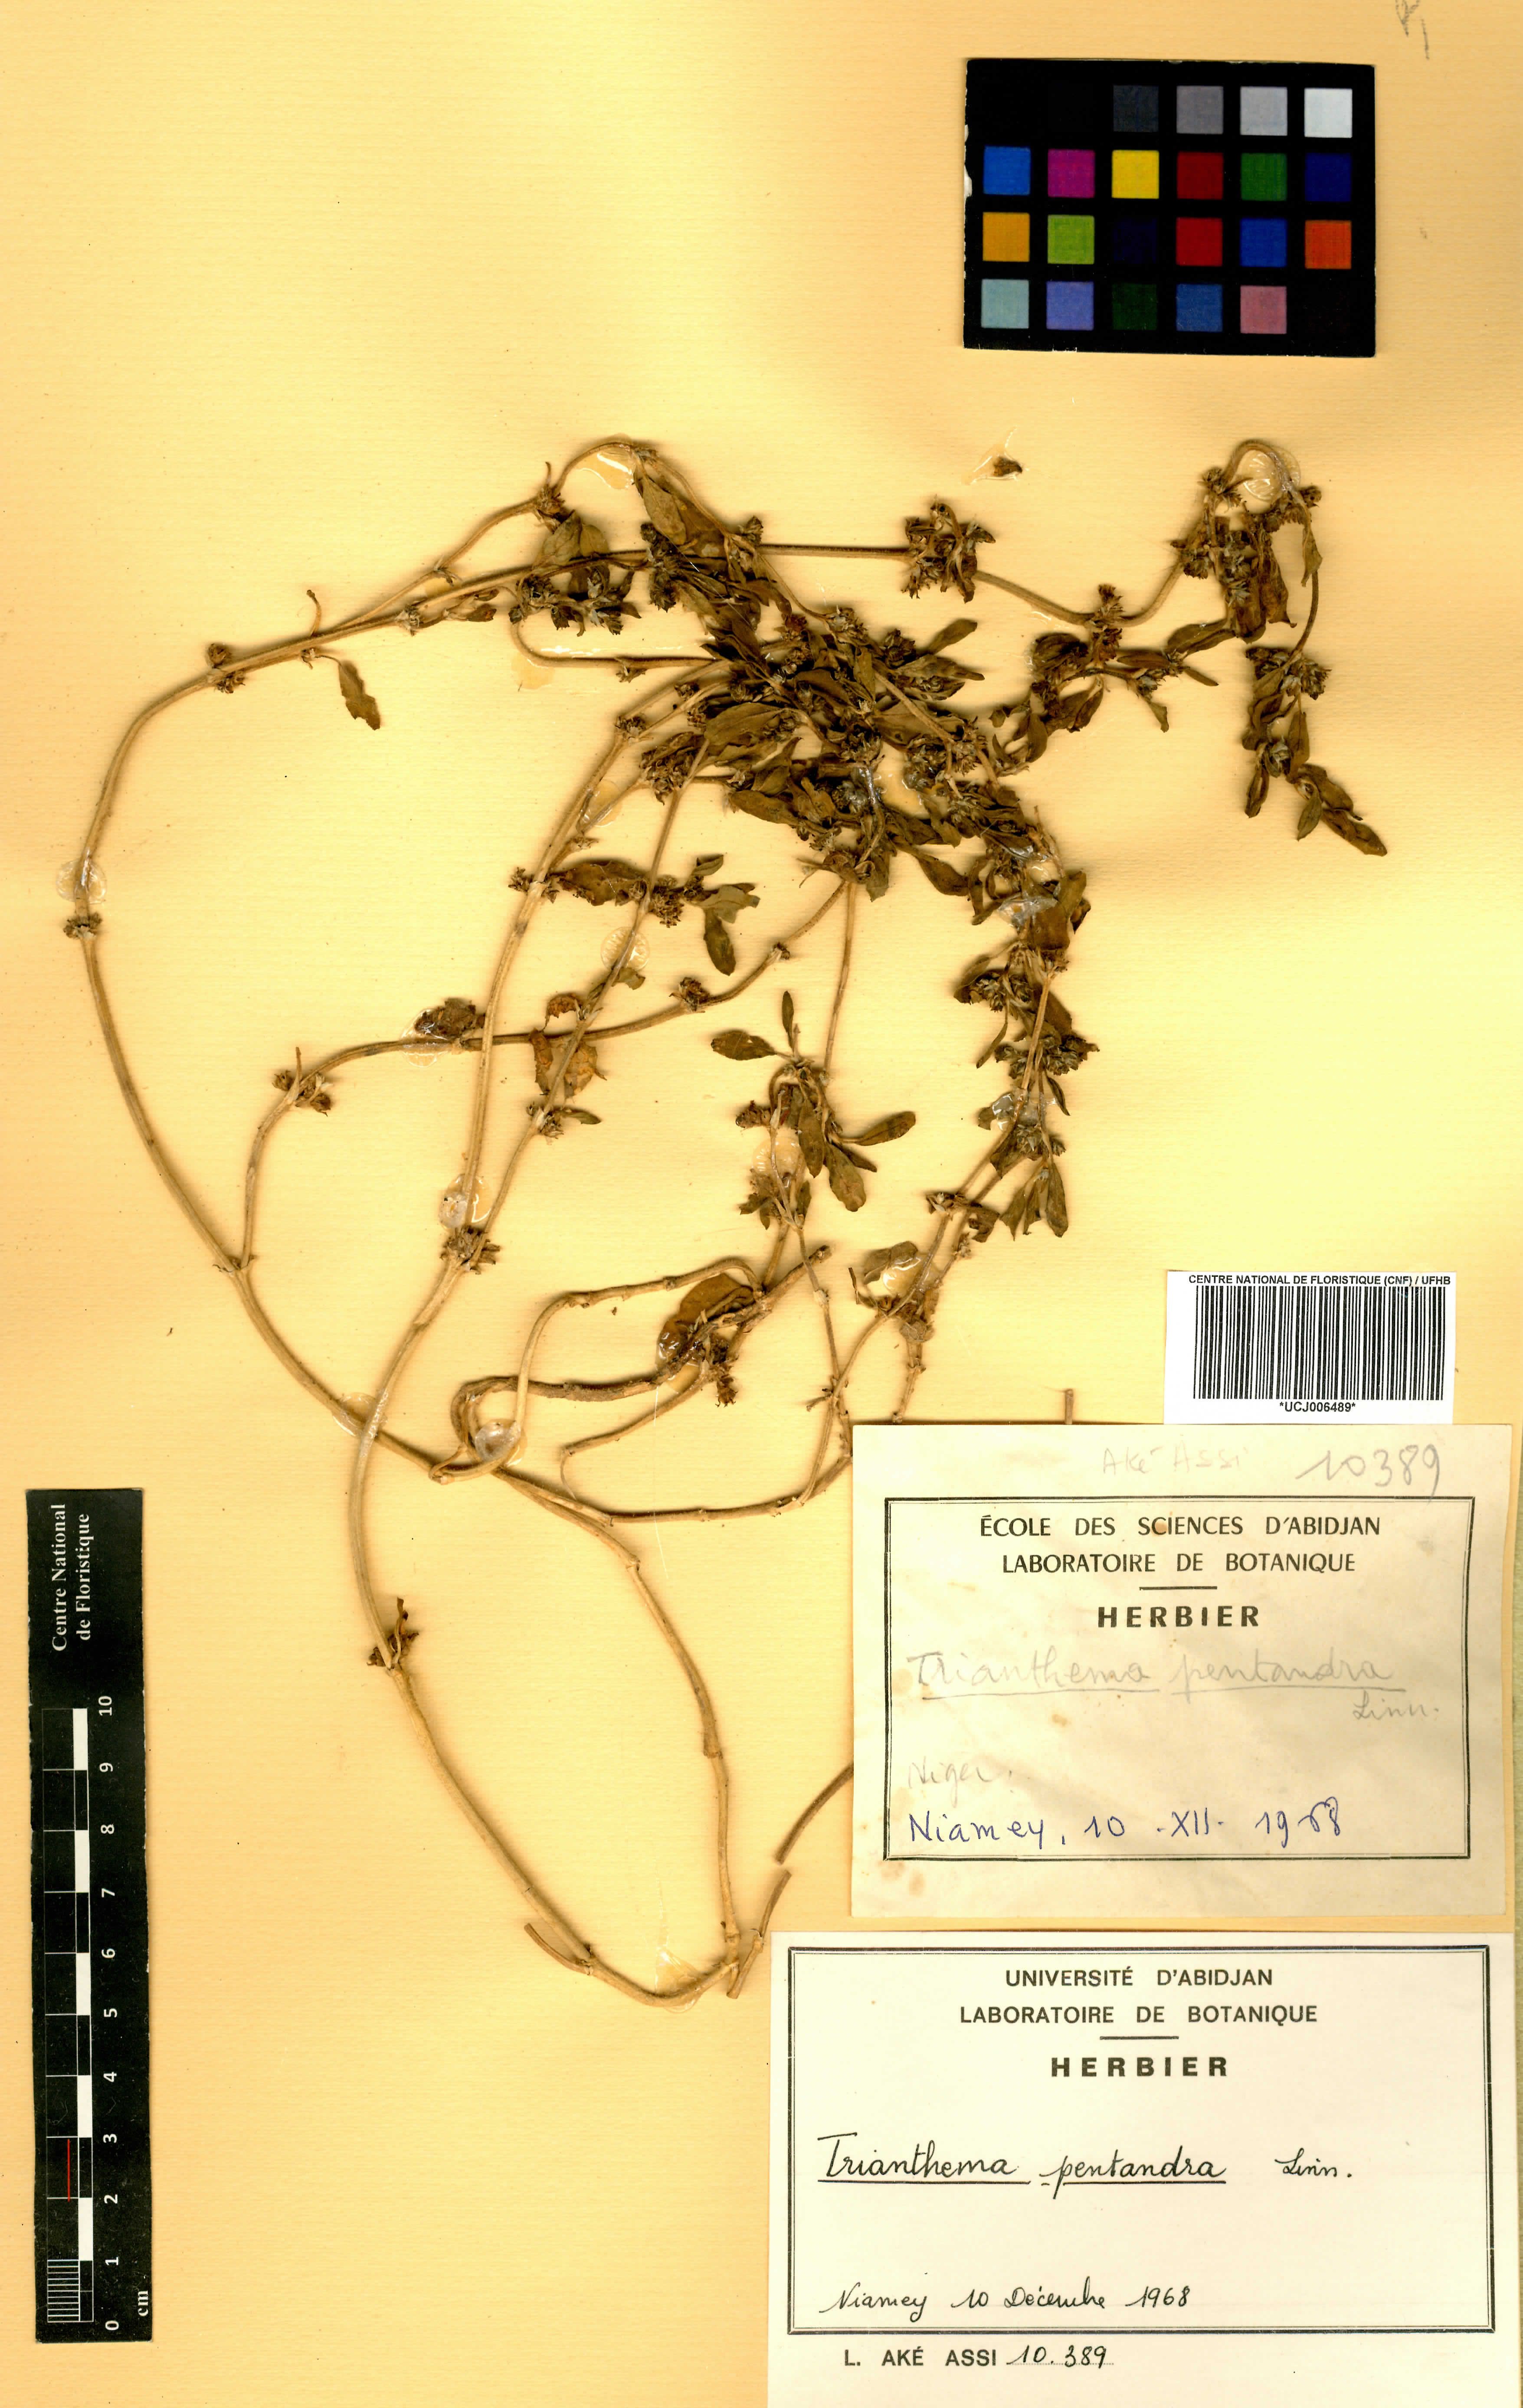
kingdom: Plantae
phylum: Tracheophyta
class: Magnoliopsida
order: Caryophyllales
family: Aizoaceae
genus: Zaleya
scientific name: Zaleya pentandra
